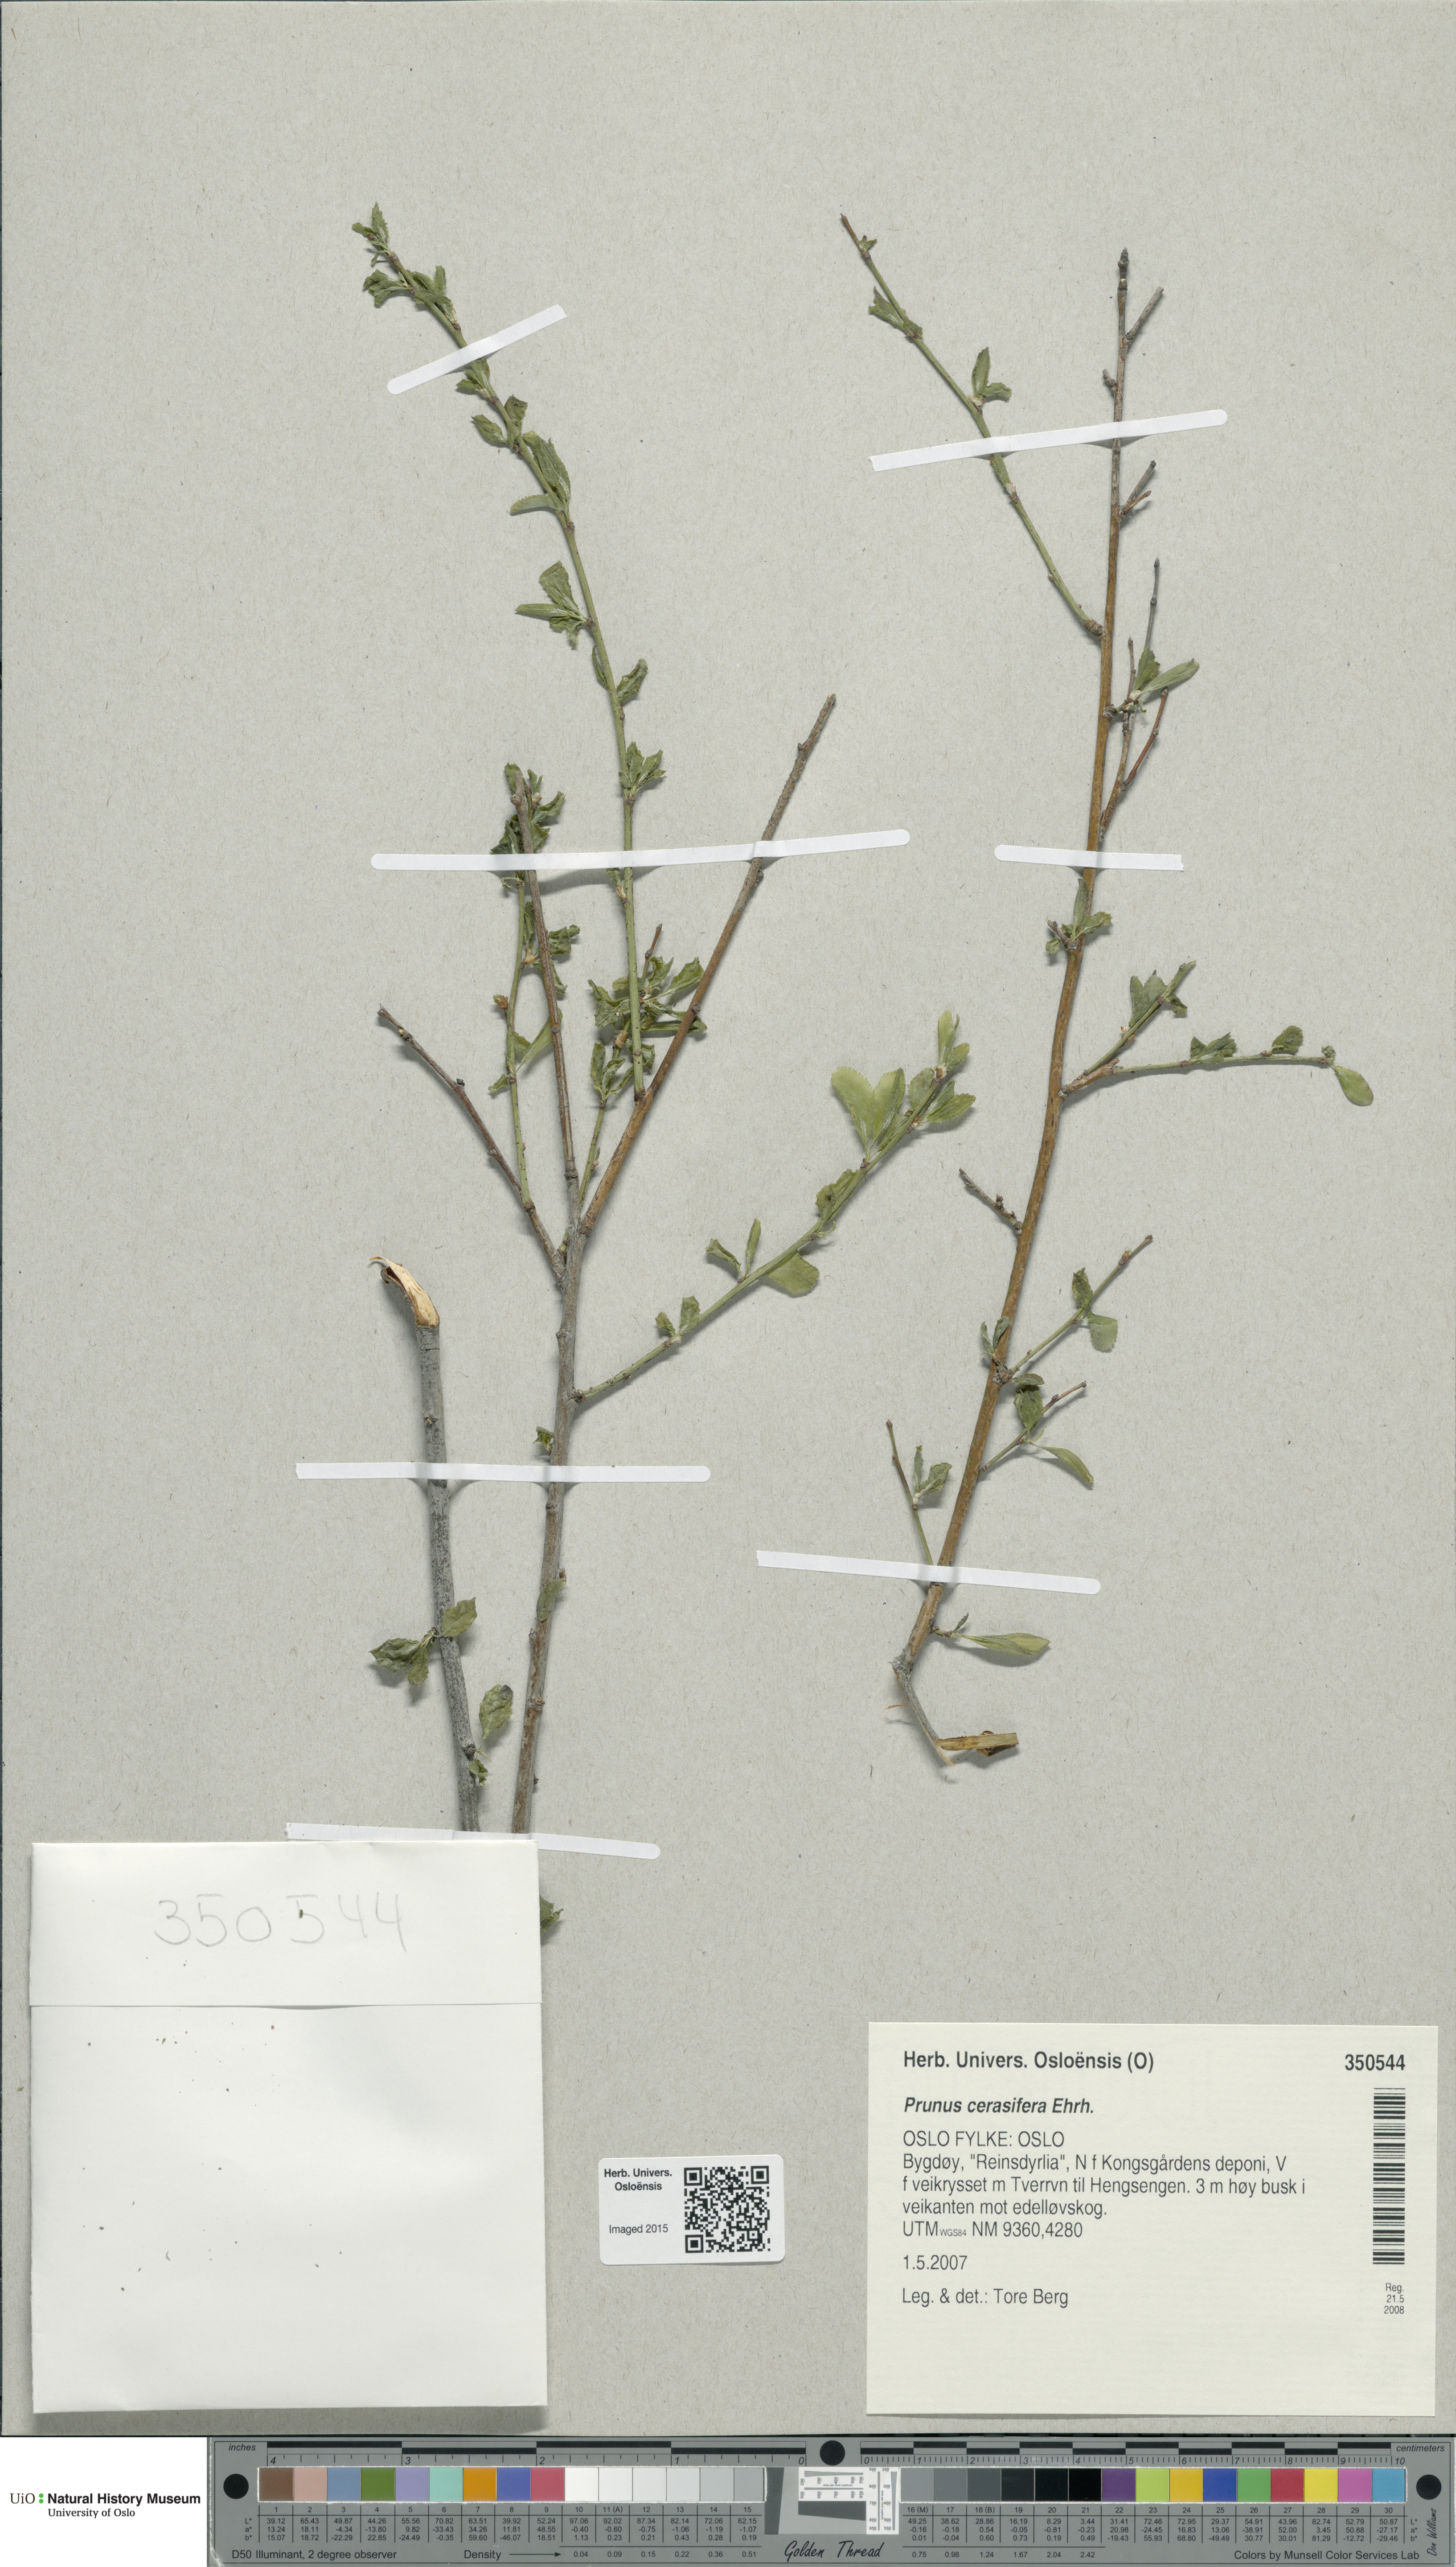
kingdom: Plantae
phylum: Tracheophyta
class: Magnoliopsida
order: Rosales
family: Rosaceae
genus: Prunus
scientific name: Prunus cerasifera
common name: Cherry plum
